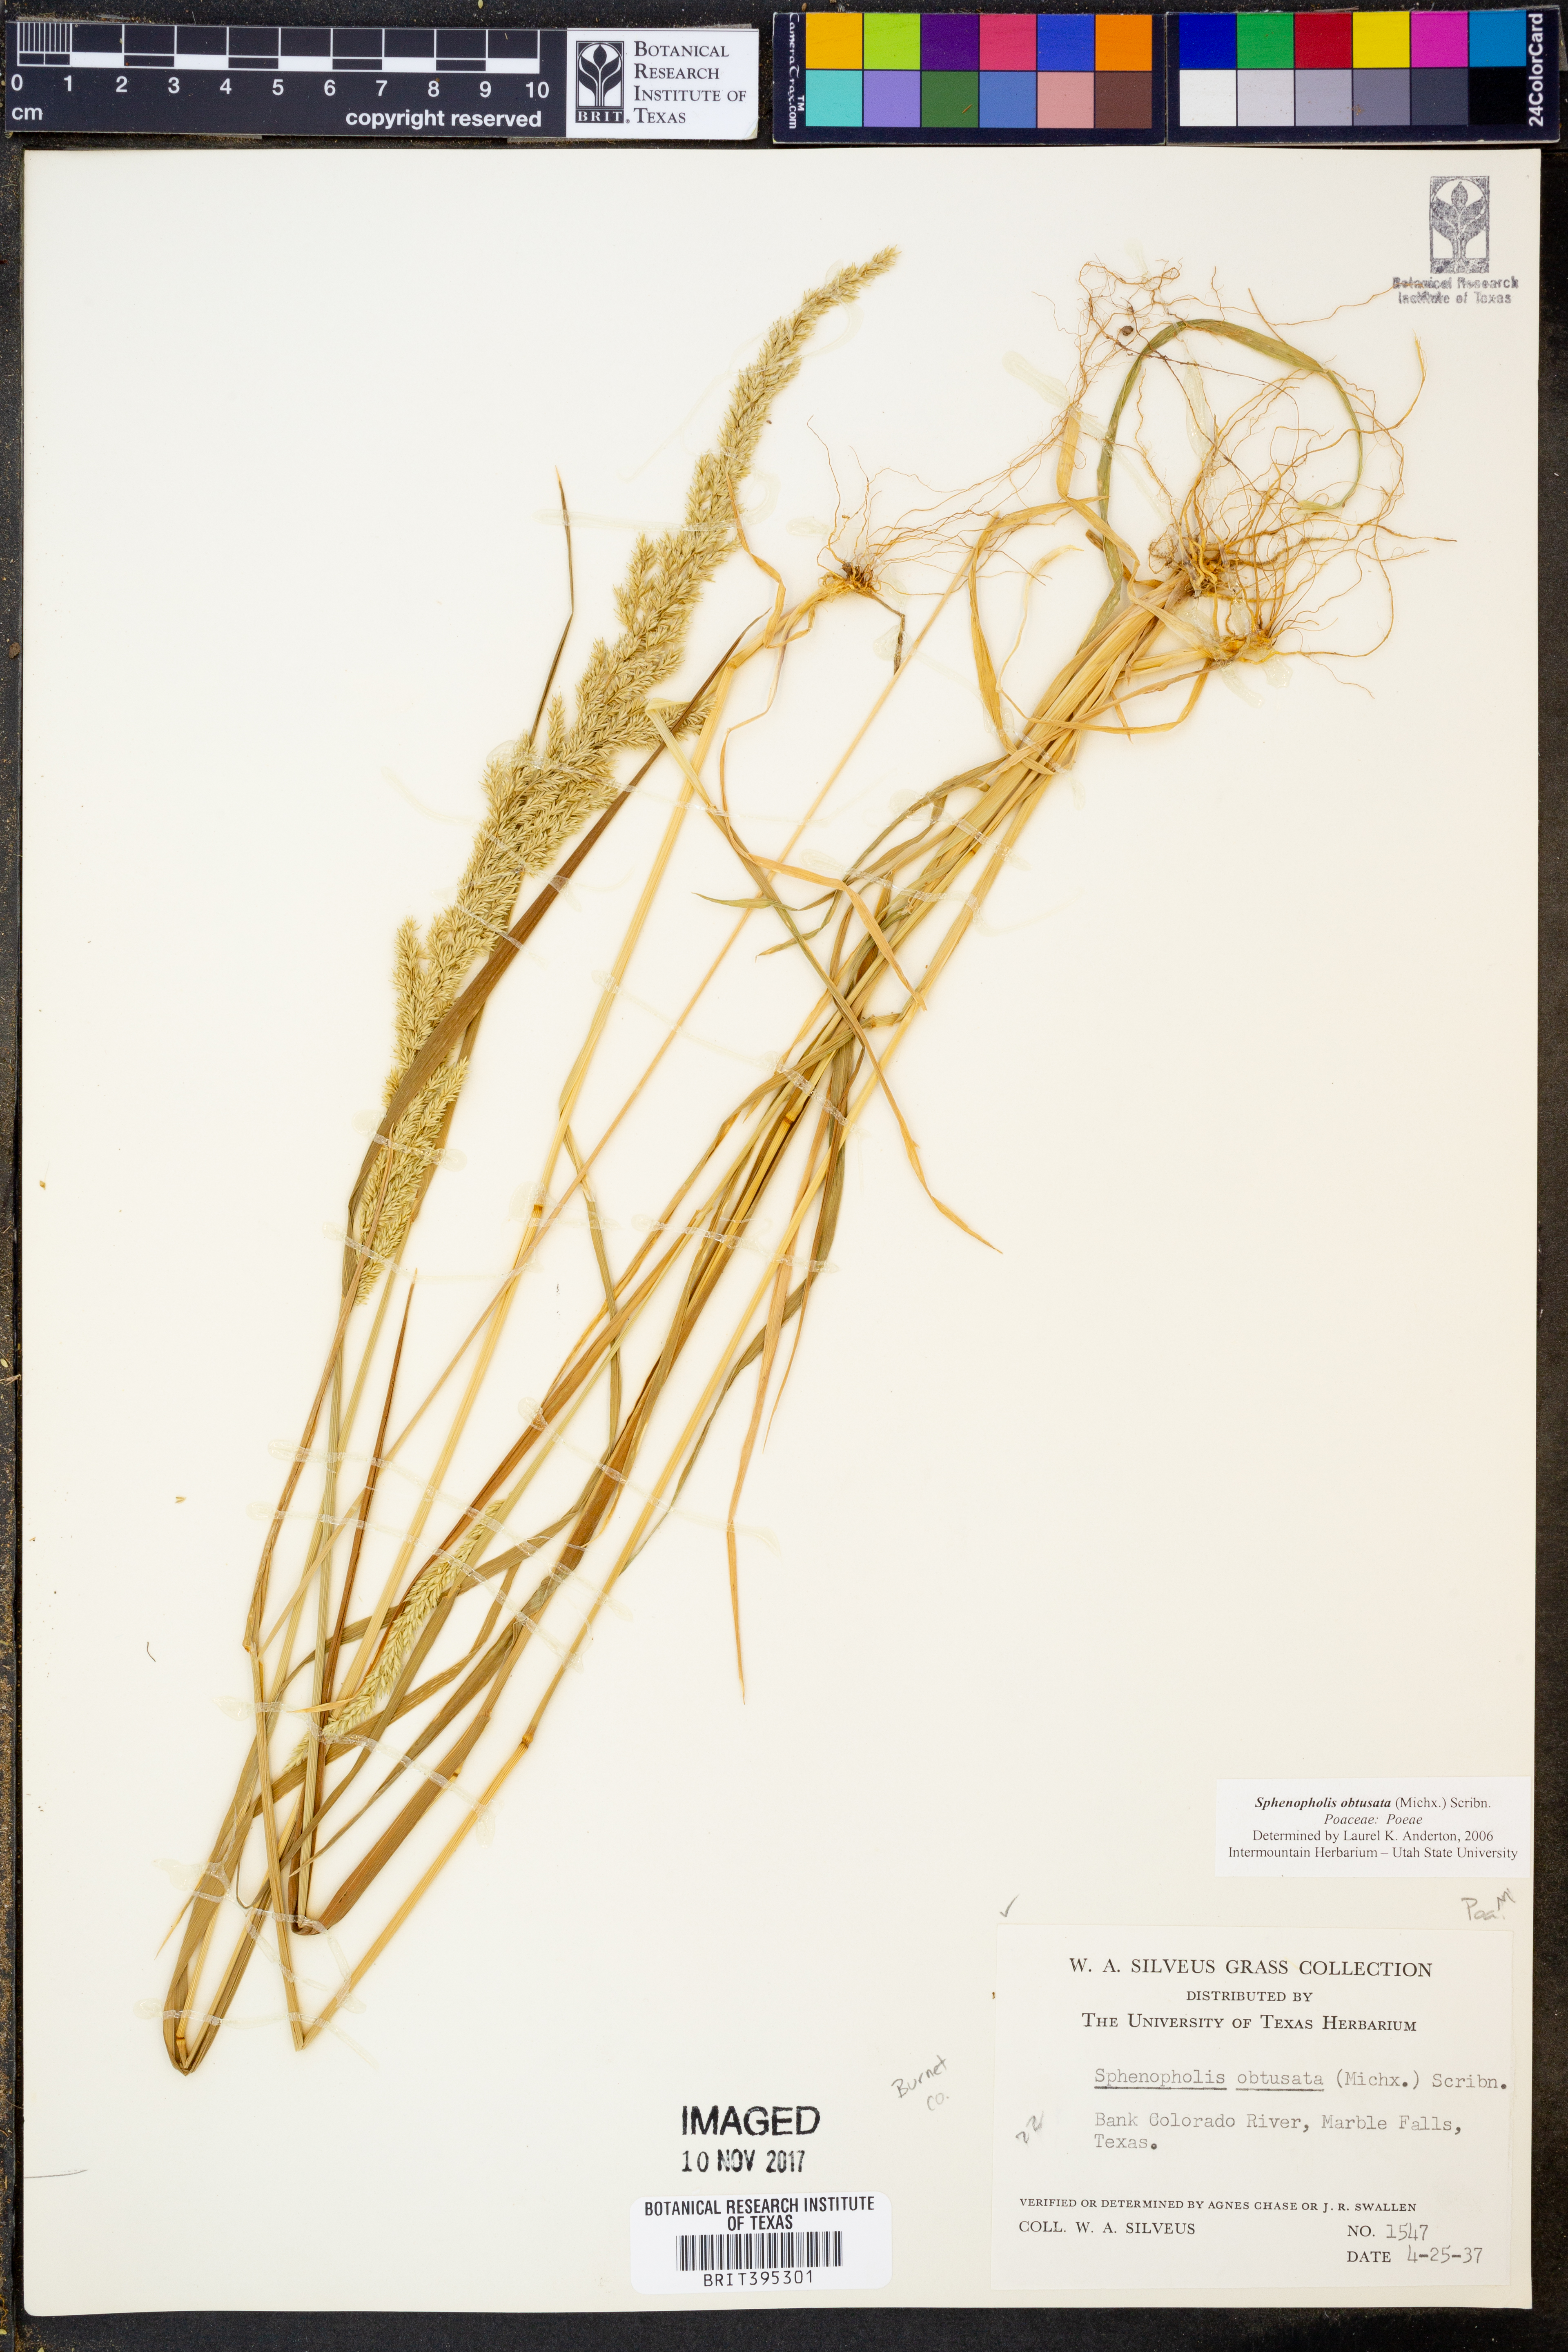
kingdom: Plantae
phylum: Tracheophyta
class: Liliopsida
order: Poales
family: Poaceae
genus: Sphenopholis
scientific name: Sphenopholis obtusata
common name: Prairie grass
